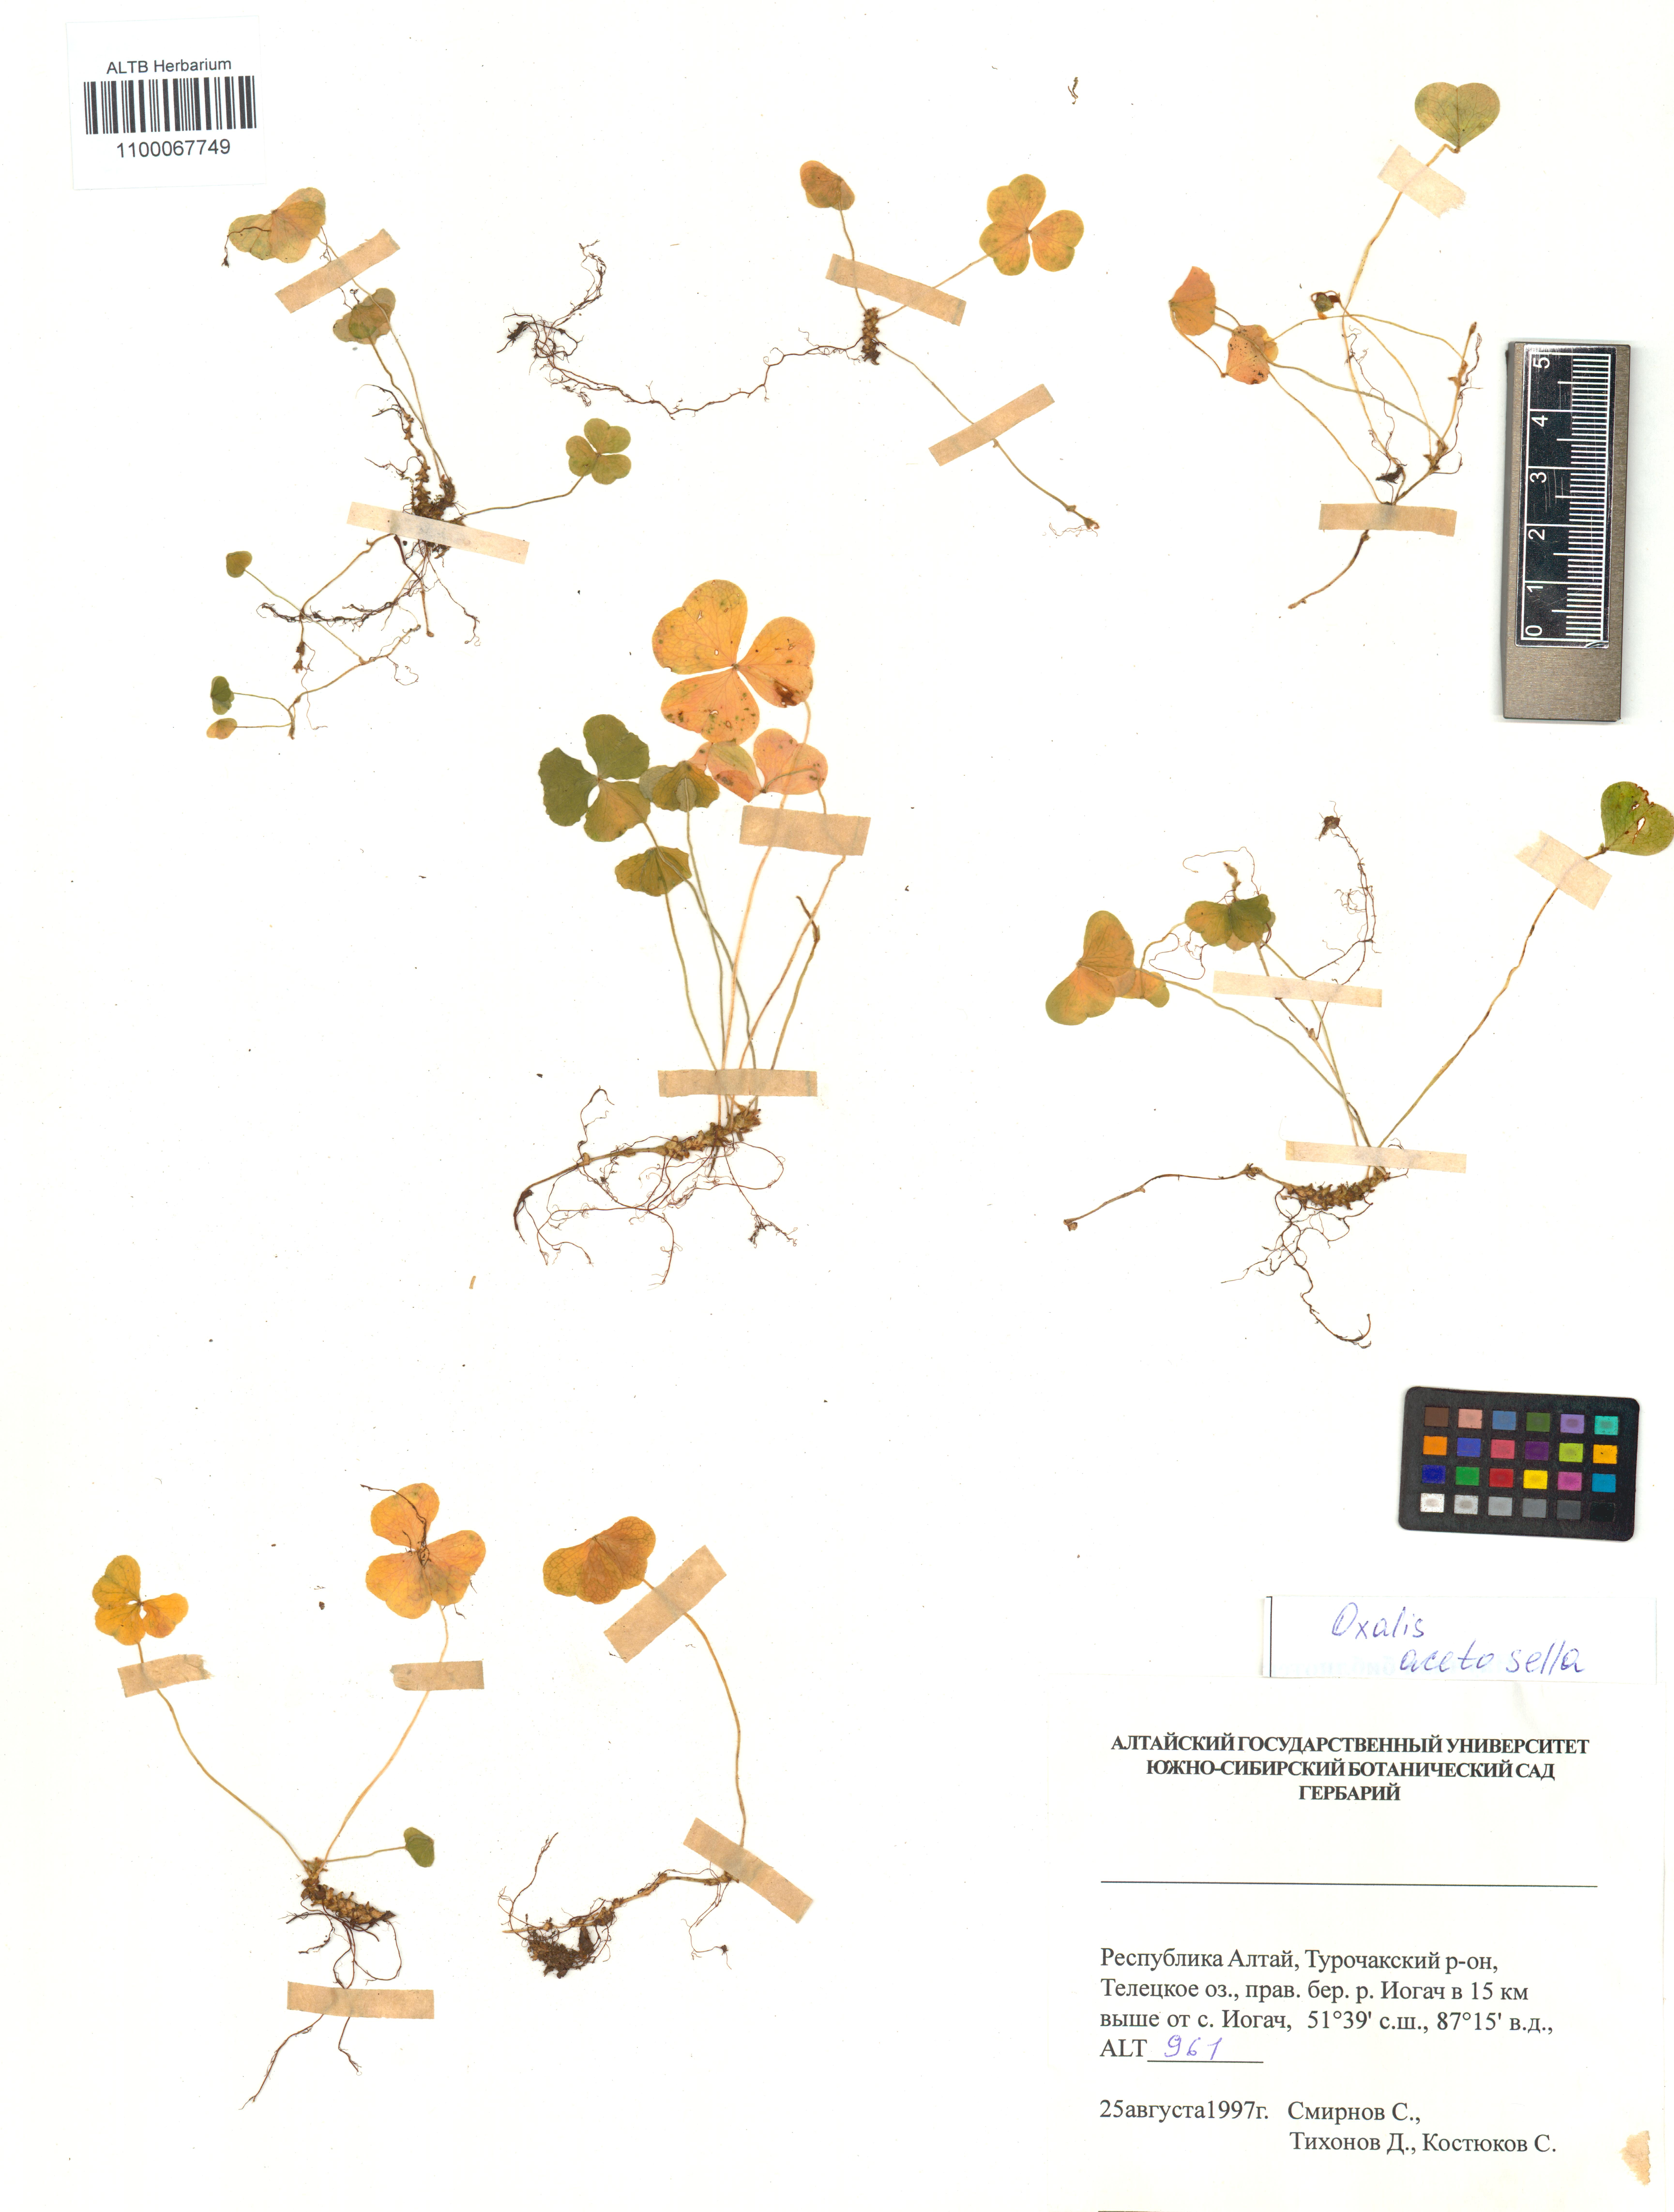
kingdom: Plantae
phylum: Tracheophyta
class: Magnoliopsida
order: Oxalidales
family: Oxalidaceae
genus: Oxalis
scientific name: Oxalis acetosella
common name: Wood-sorrel
